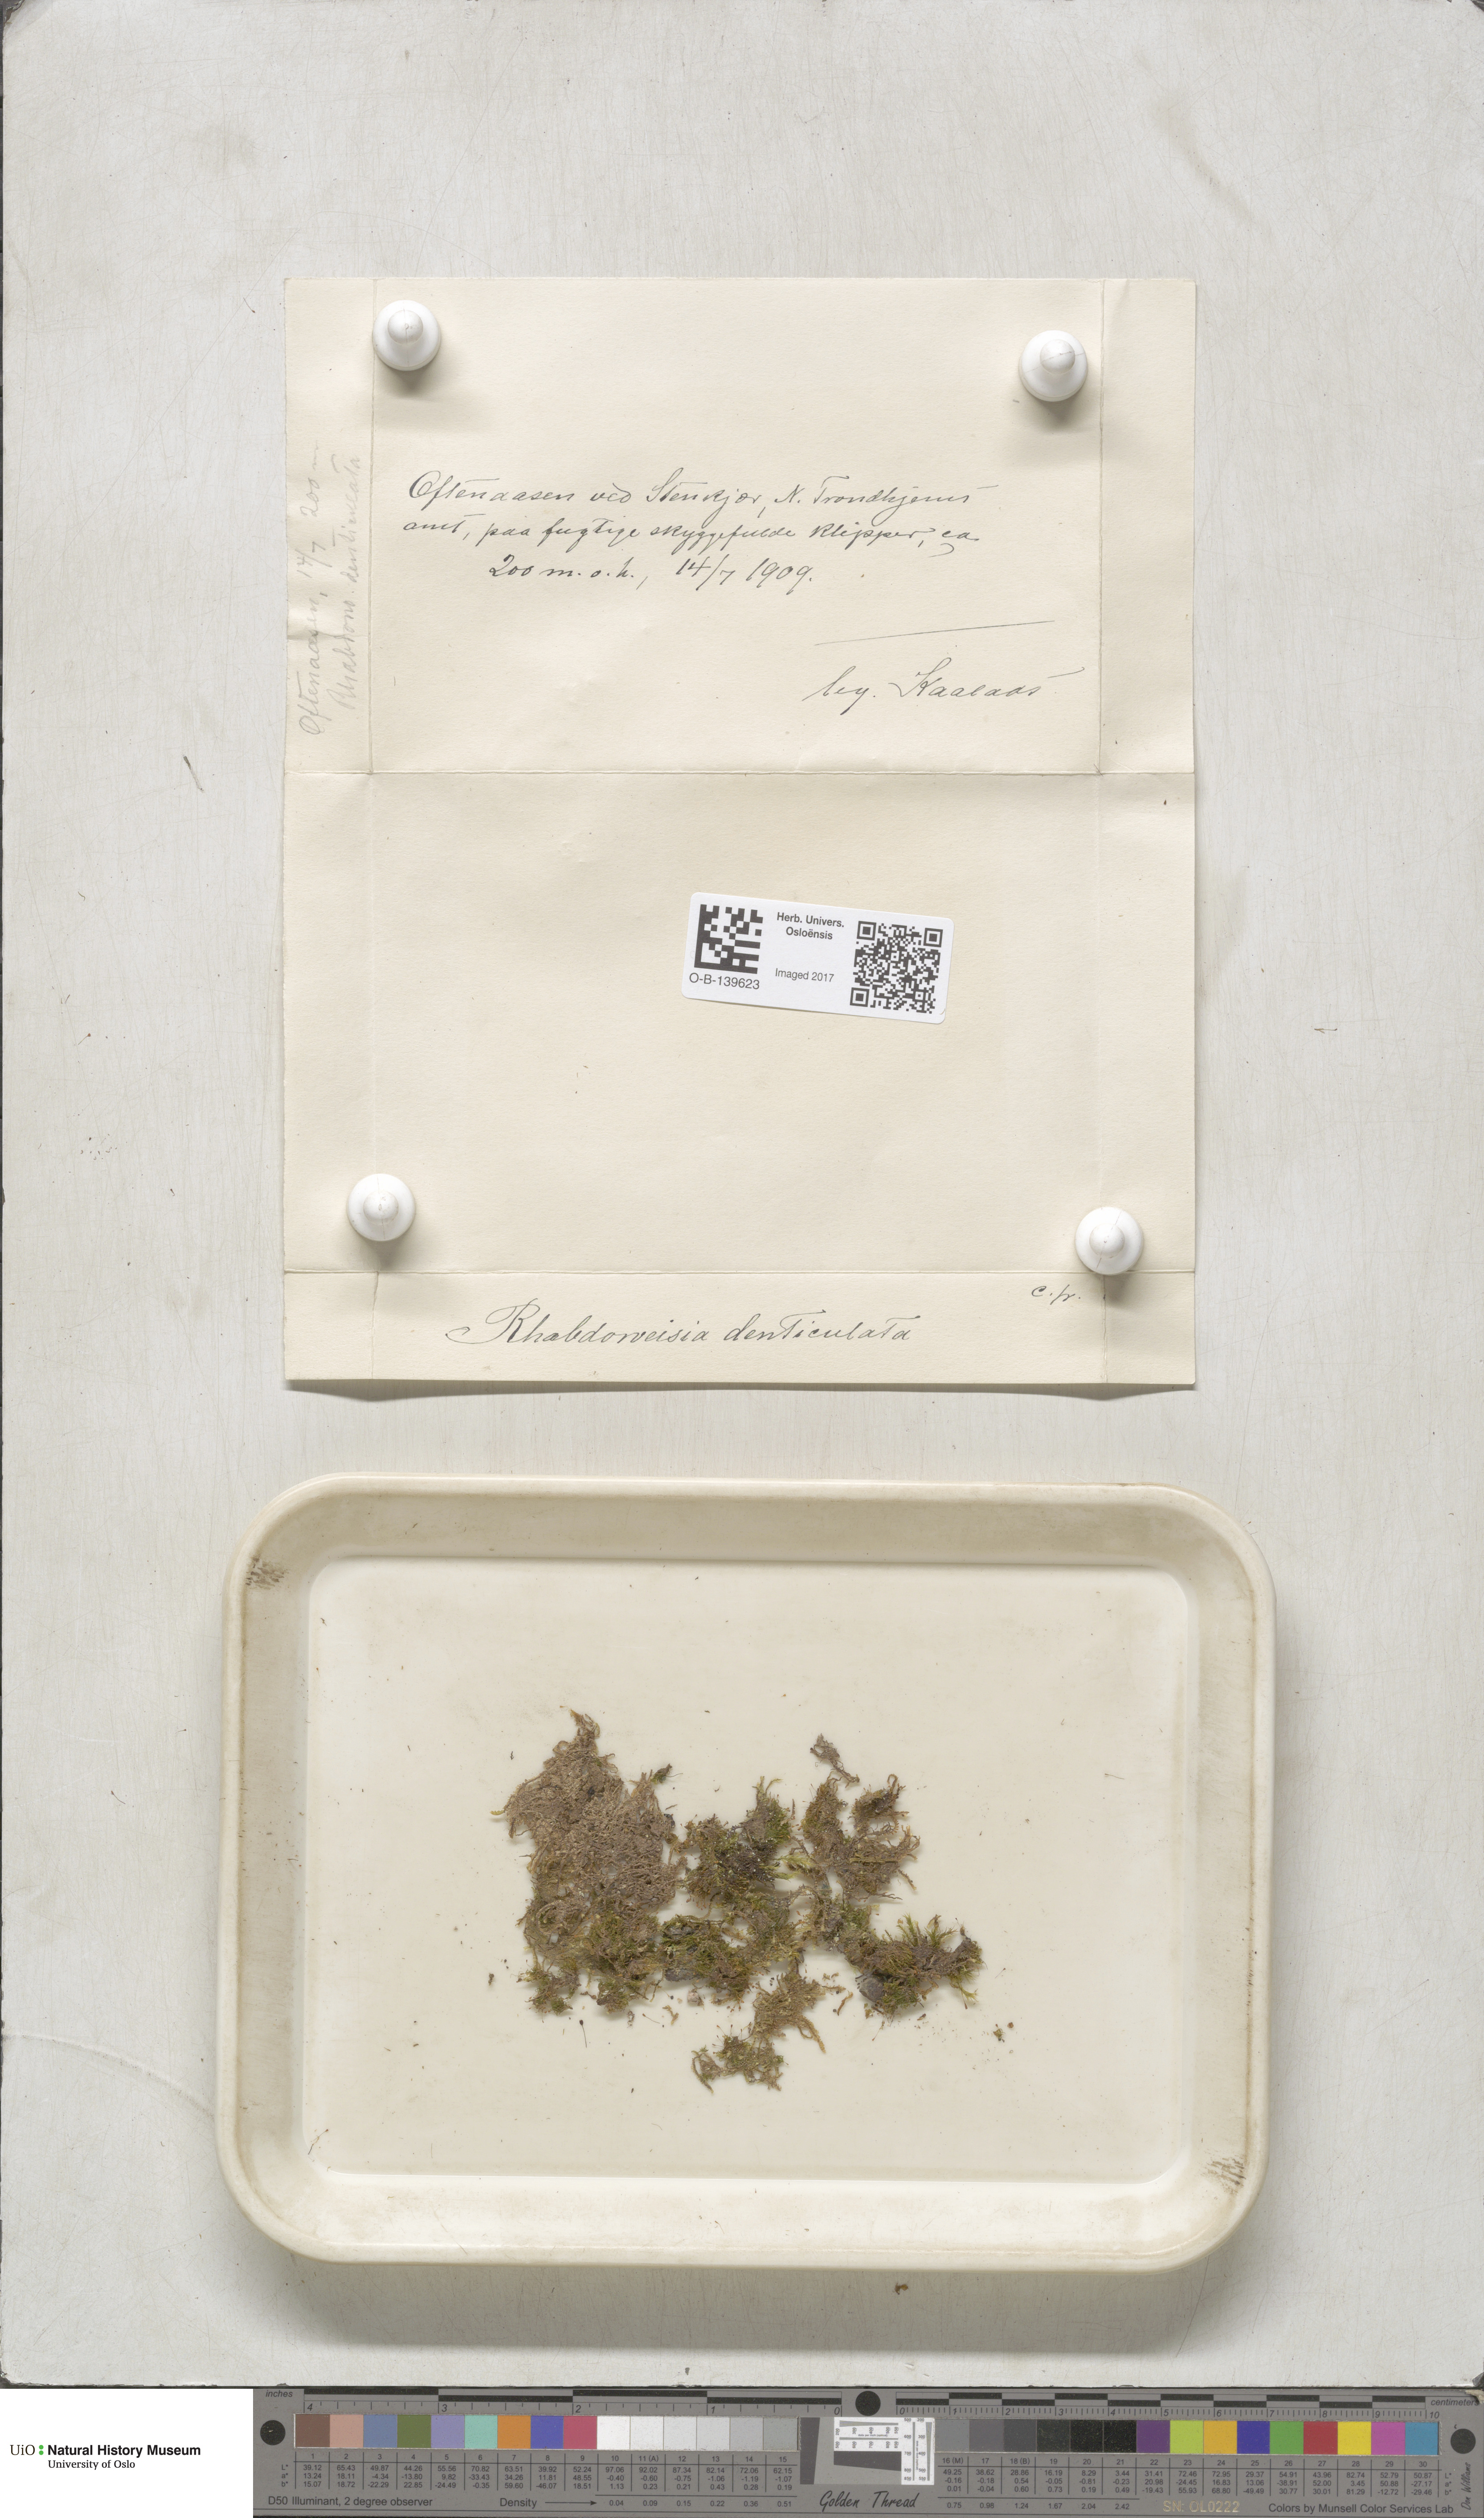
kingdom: Plantae
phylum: Bryophyta
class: Bryopsida
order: Dicranales
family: Rhabdoweisiaceae
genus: Rhabdoweisia
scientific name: Rhabdoweisia crispata
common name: Fine-toothed streak moss
